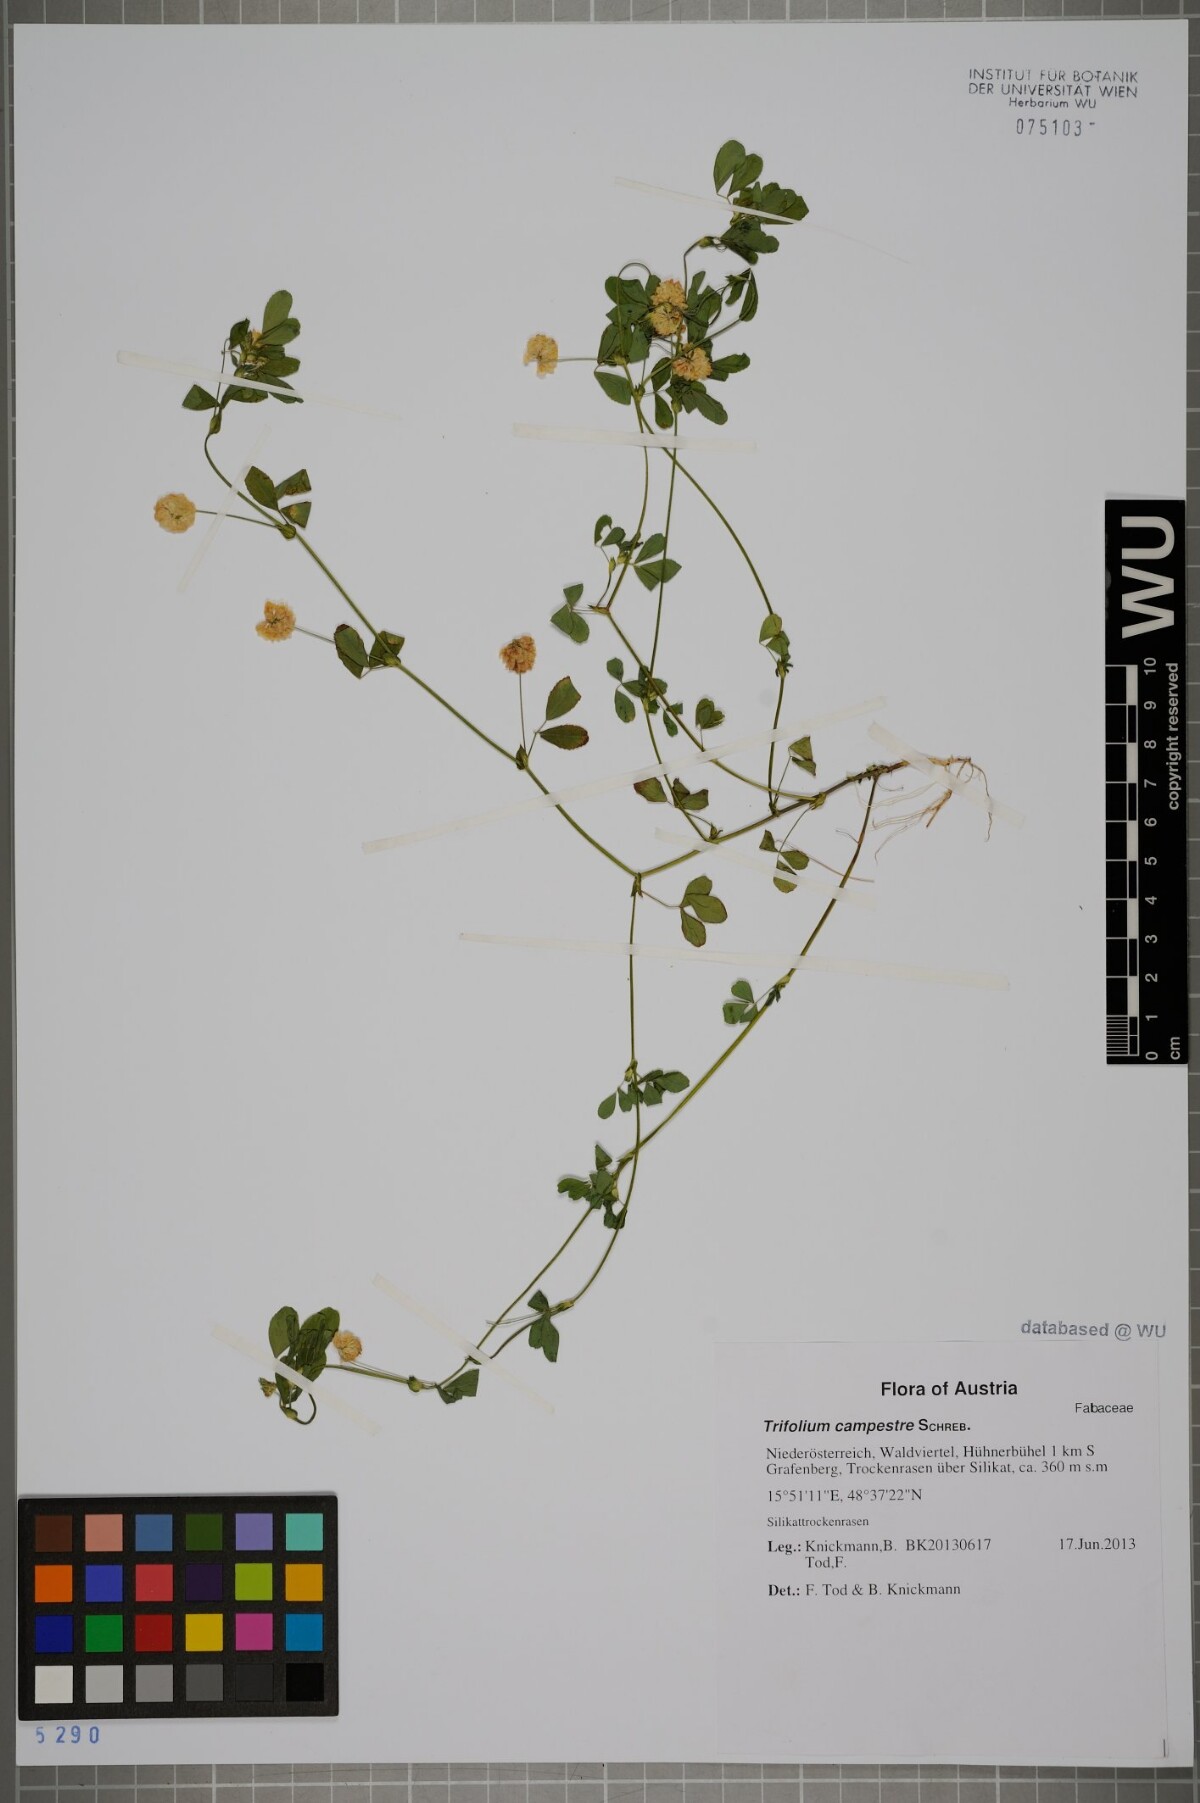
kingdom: Plantae
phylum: Tracheophyta
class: Magnoliopsida
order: Fabales
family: Fabaceae
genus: Trifolium
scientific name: Trifolium campestre
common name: Field clover
